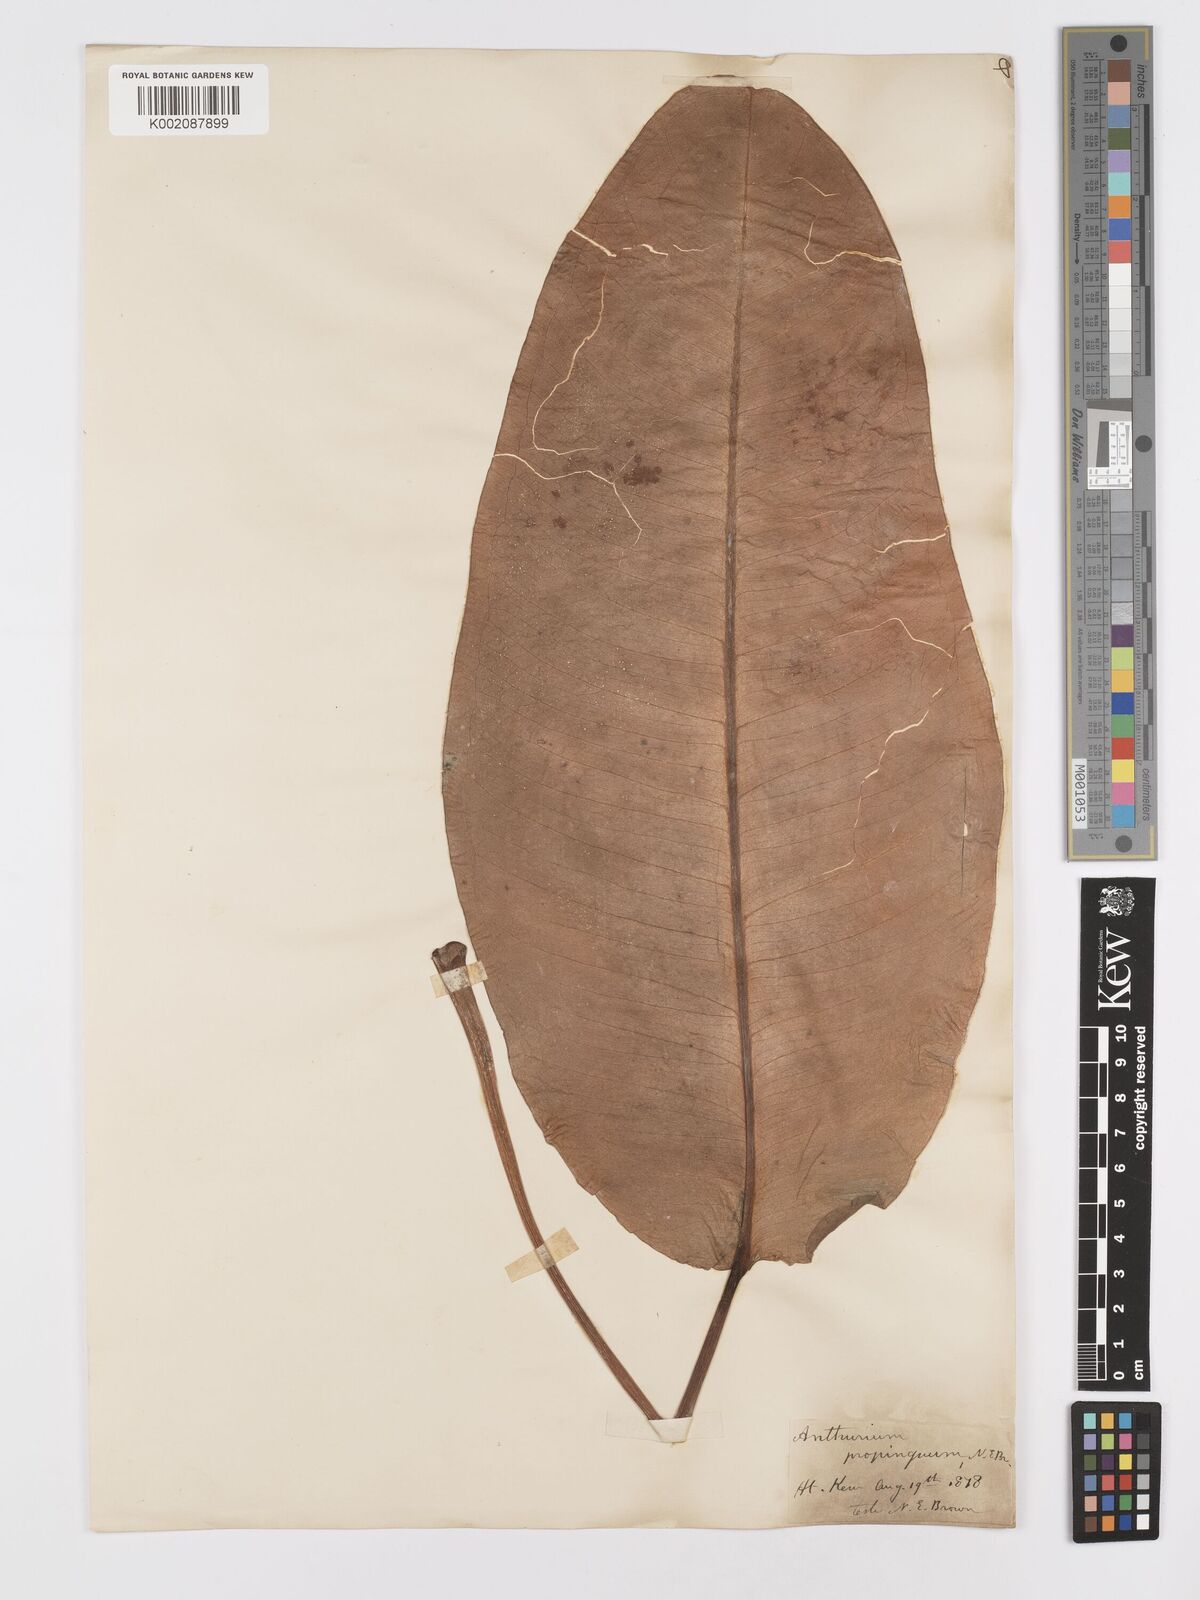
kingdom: Plantae
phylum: Tracheophyta
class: Liliopsida
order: Alismatales
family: Araceae
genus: Anthurium
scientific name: Anthurium cuspidatum
